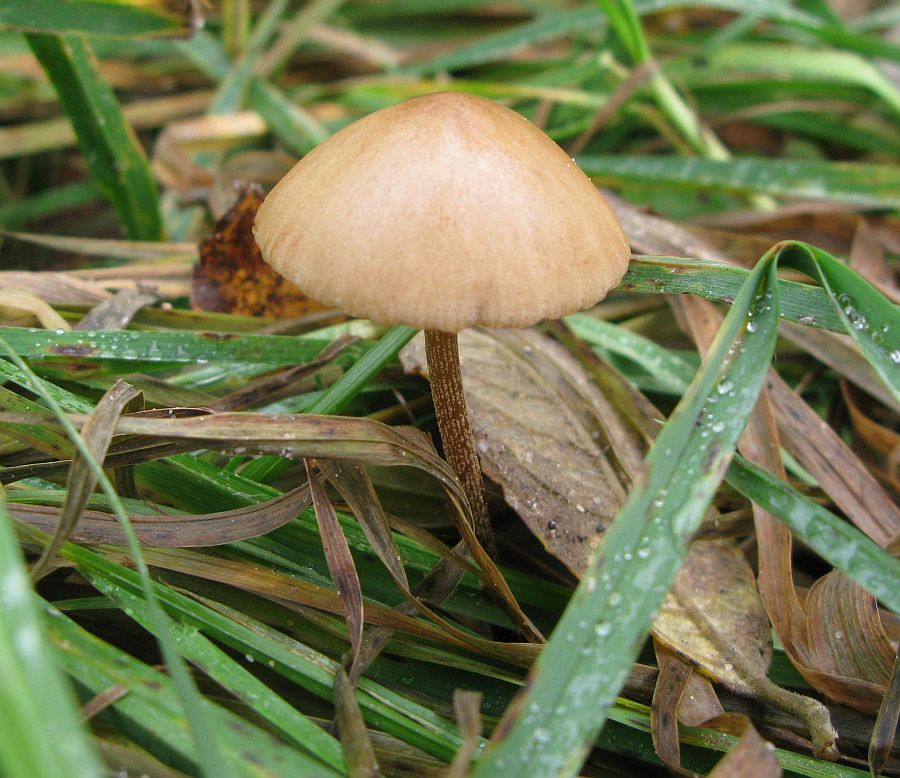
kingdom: Fungi
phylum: Basidiomycota
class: Agaricomycetes
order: Agaricales
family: Bolbitiaceae
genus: Conocybe
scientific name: Conocybe subovalis
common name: hvælvet keglehat
